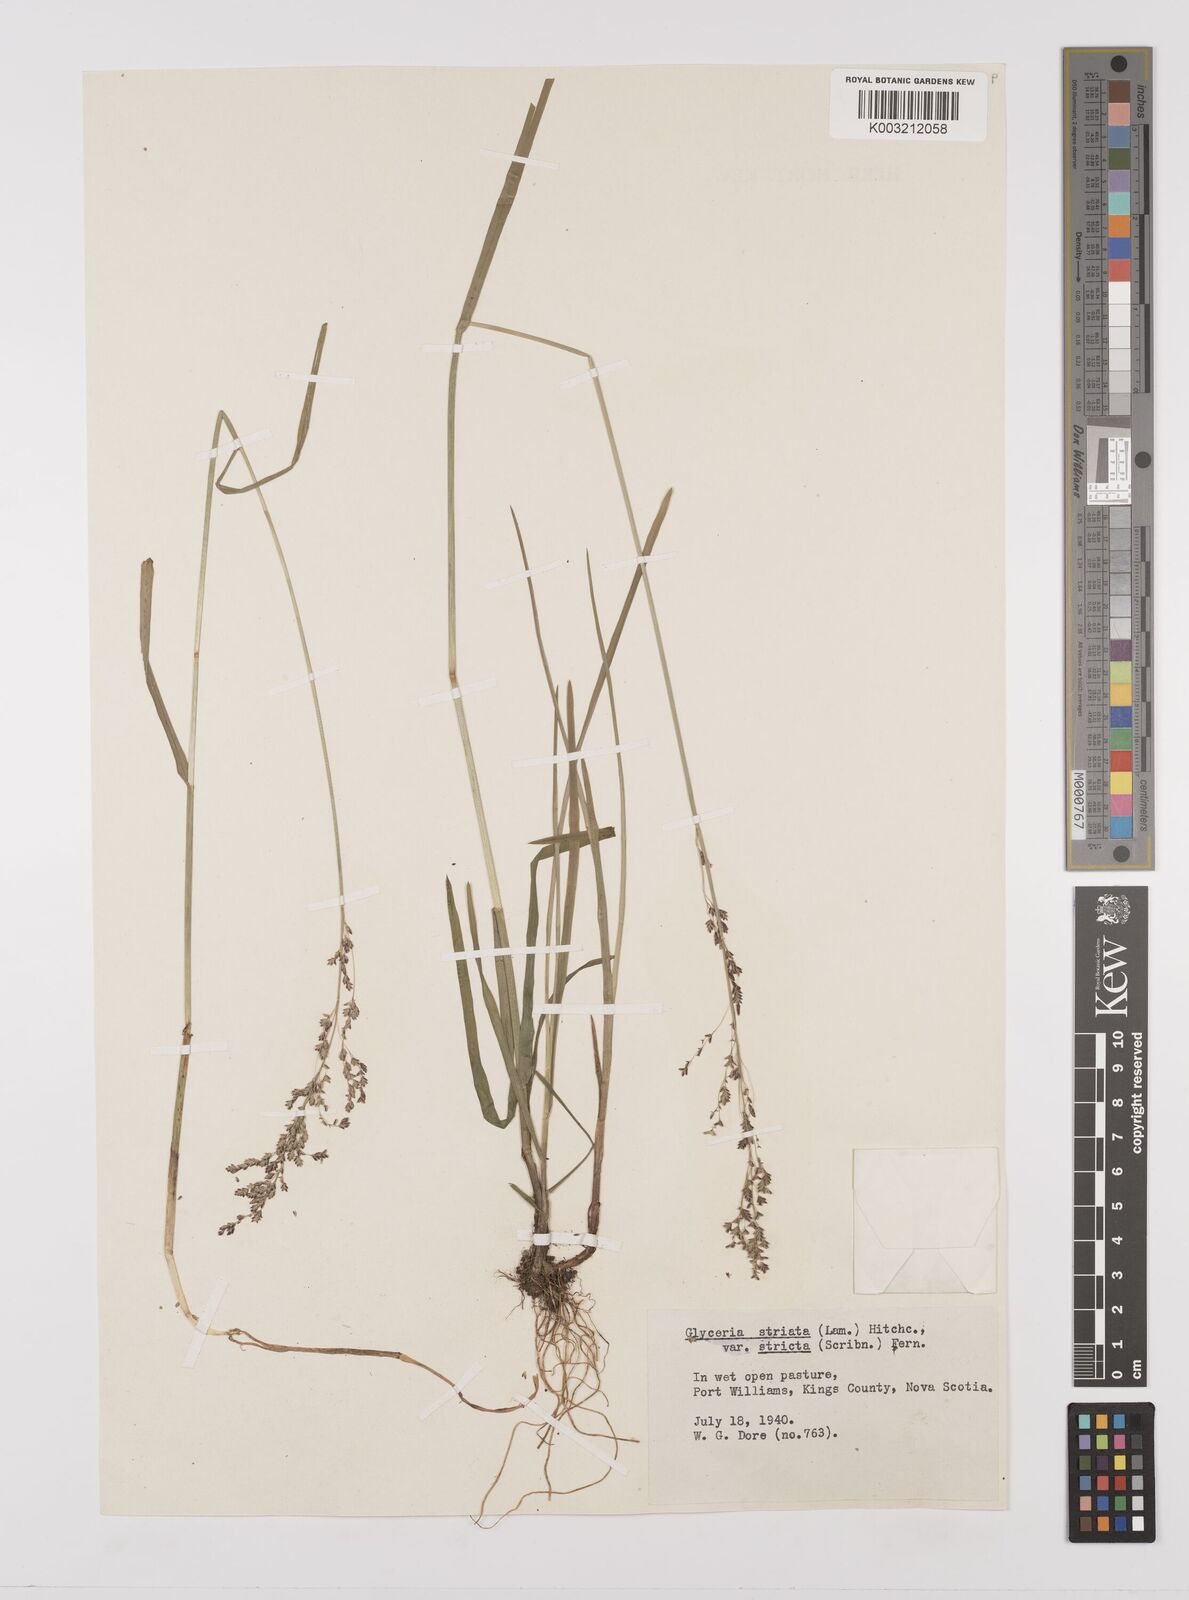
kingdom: Plantae
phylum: Tracheophyta
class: Liliopsida
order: Poales
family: Poaceae
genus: Glyceria
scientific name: Glyceria striata
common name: Fowl manna grass
